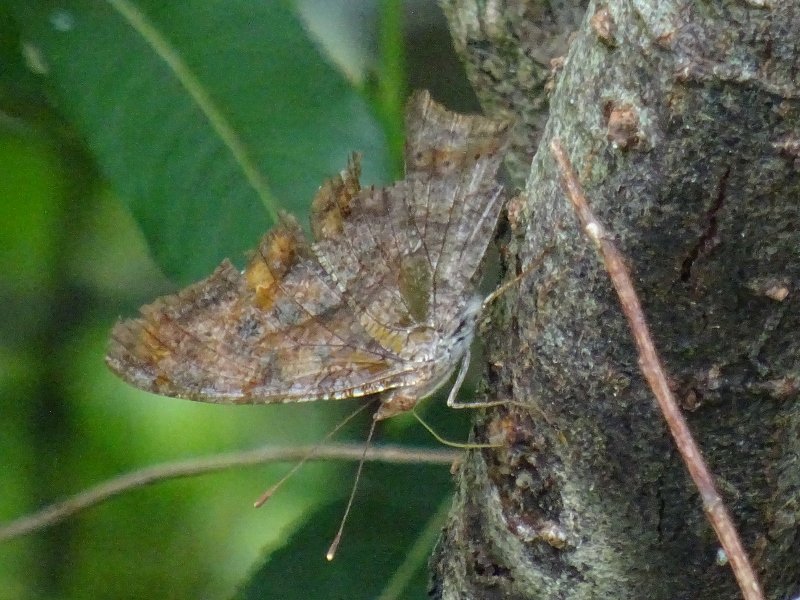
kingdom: Animalia
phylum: Arthropoda
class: Insecta
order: Lepidoptera
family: Nymphalidae
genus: Polygonia
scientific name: Polygonia interrogationis
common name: Question Mark
